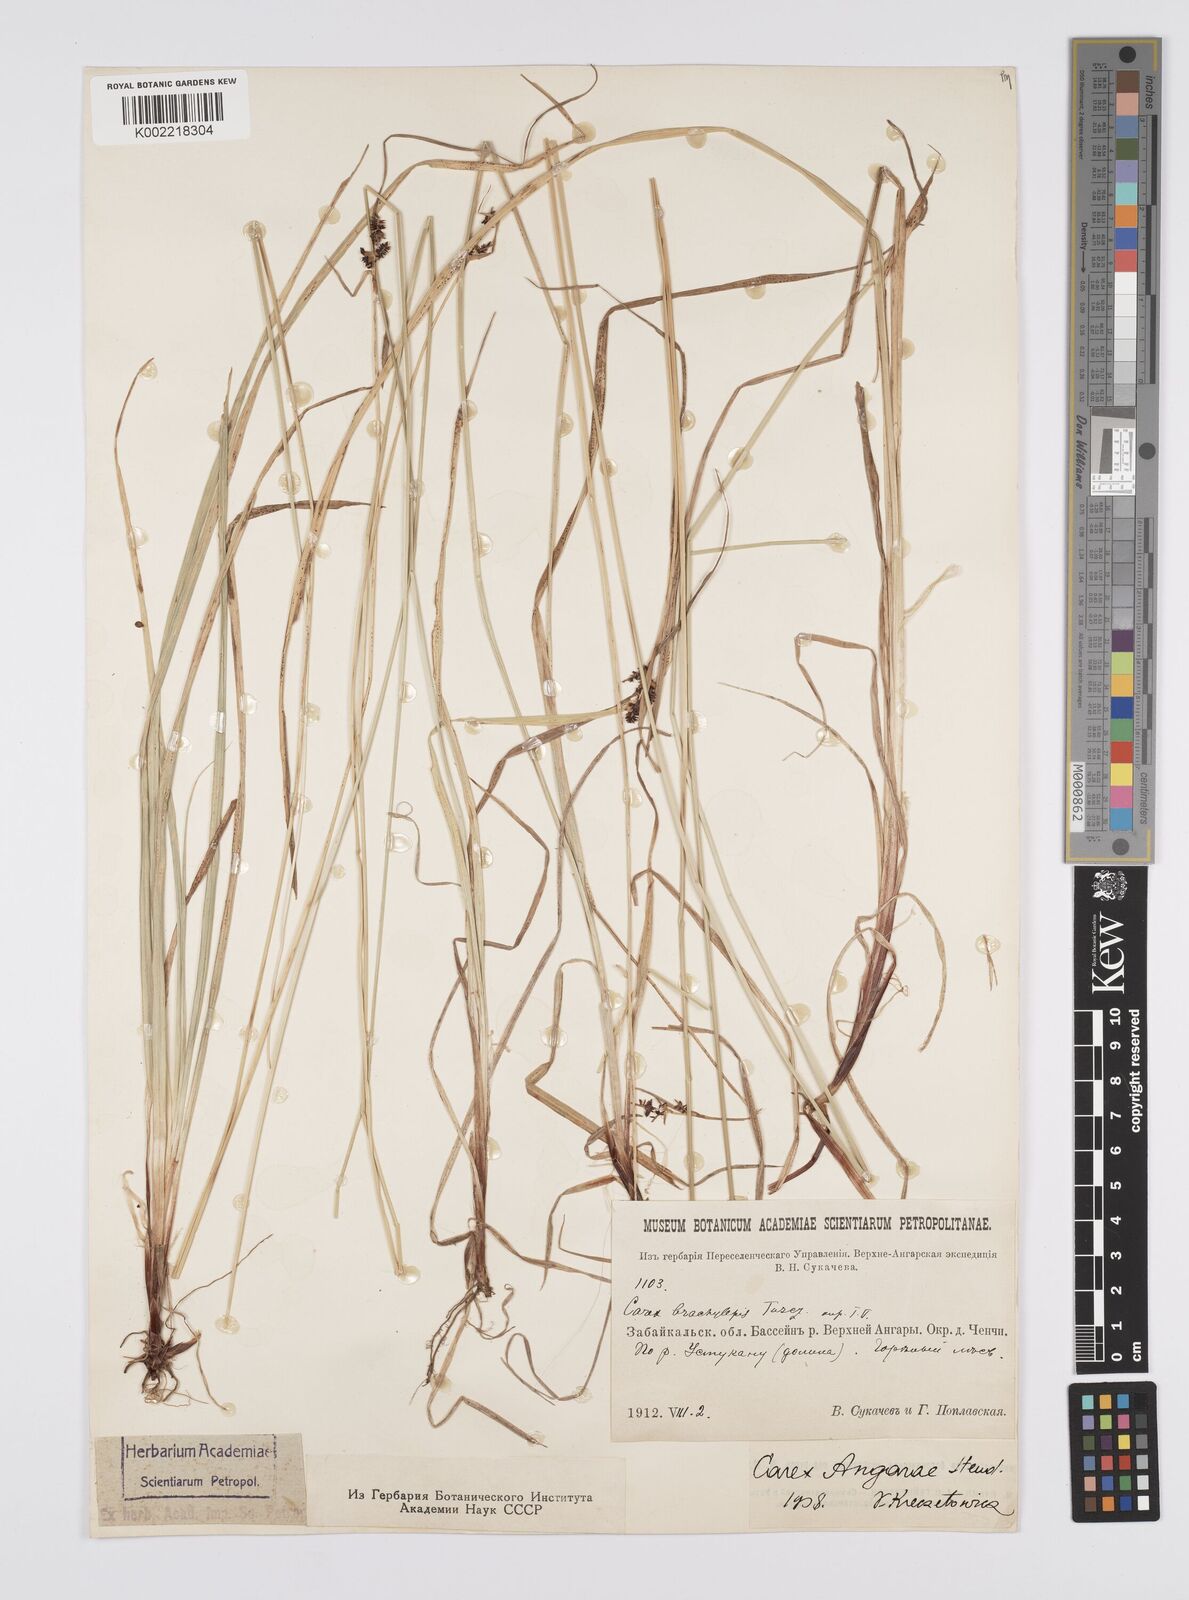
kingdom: Plantae
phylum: Tracheophyta
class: Liliopsida
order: Poales
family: Cyperaceae
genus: Carex
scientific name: Carex nigra
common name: Common sedge
